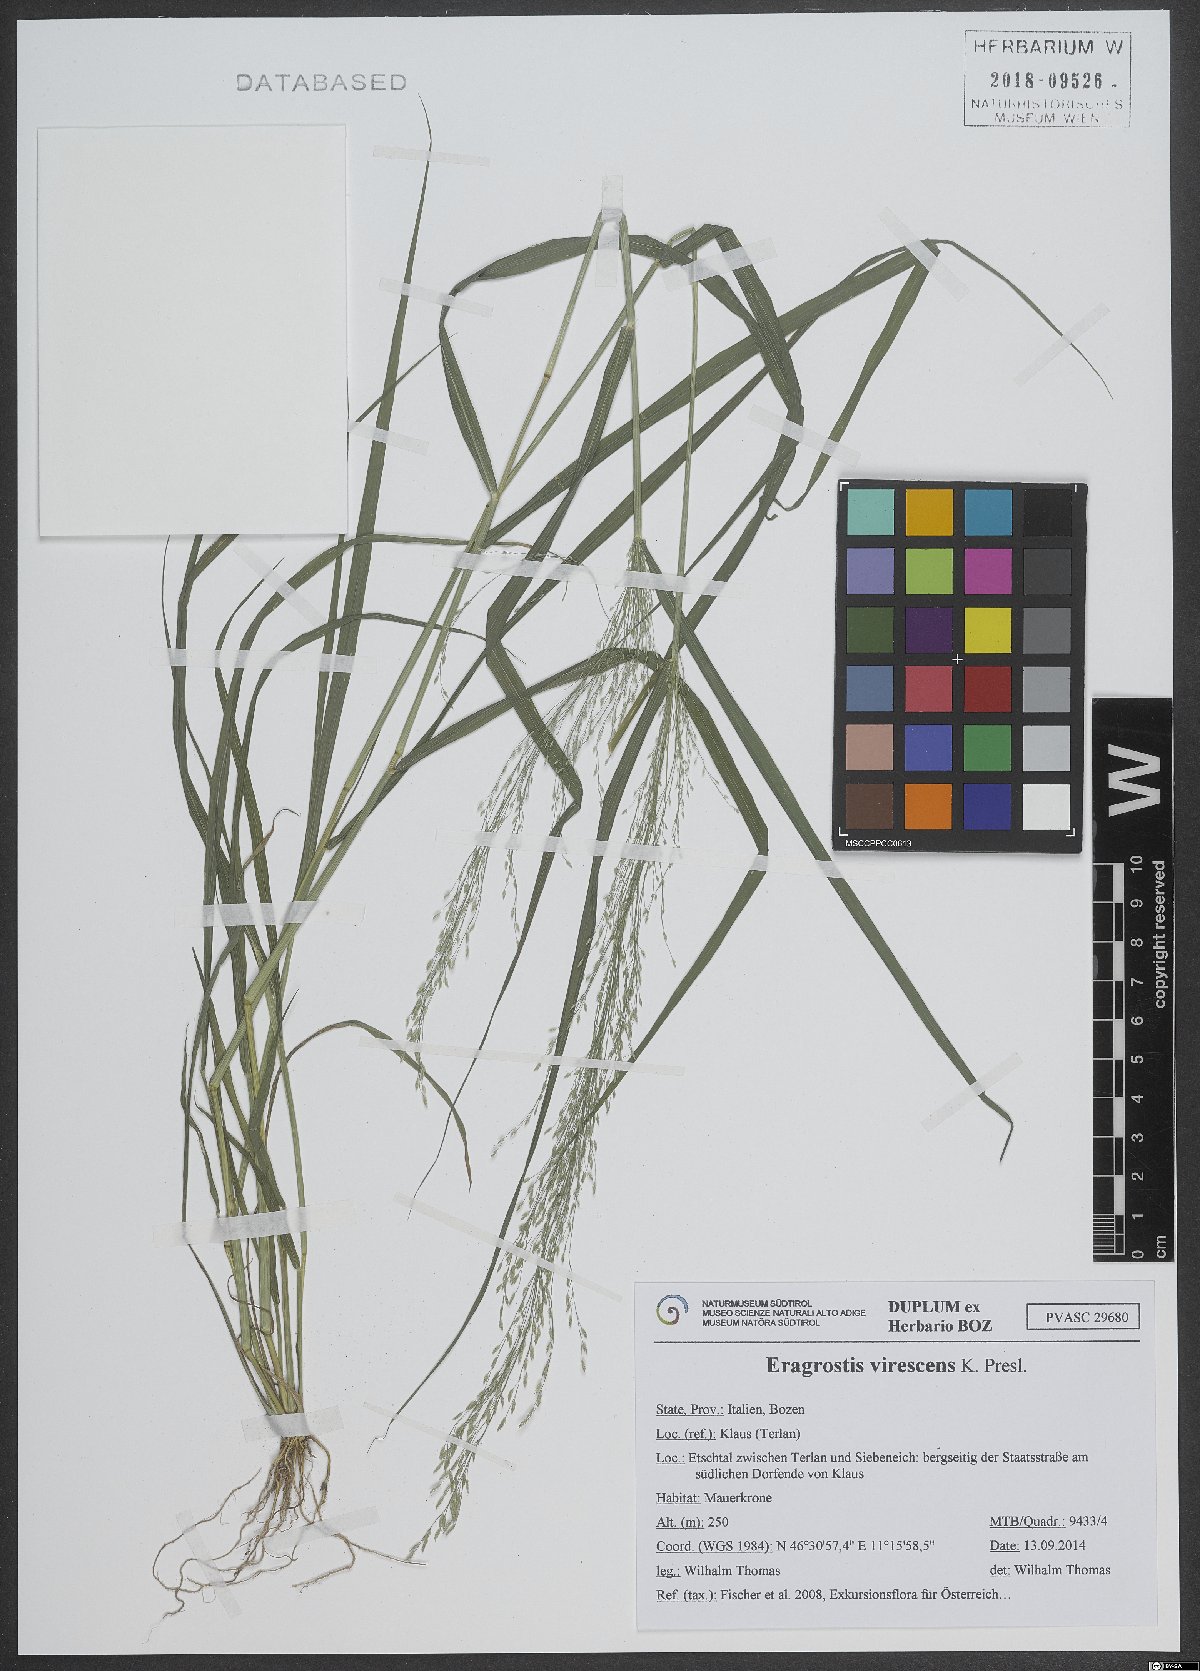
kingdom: Plantae
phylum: Tracheophyta
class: Liliopsida
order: Poales
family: Poaceae
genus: Eragrostis
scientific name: Eragrostis virescens
